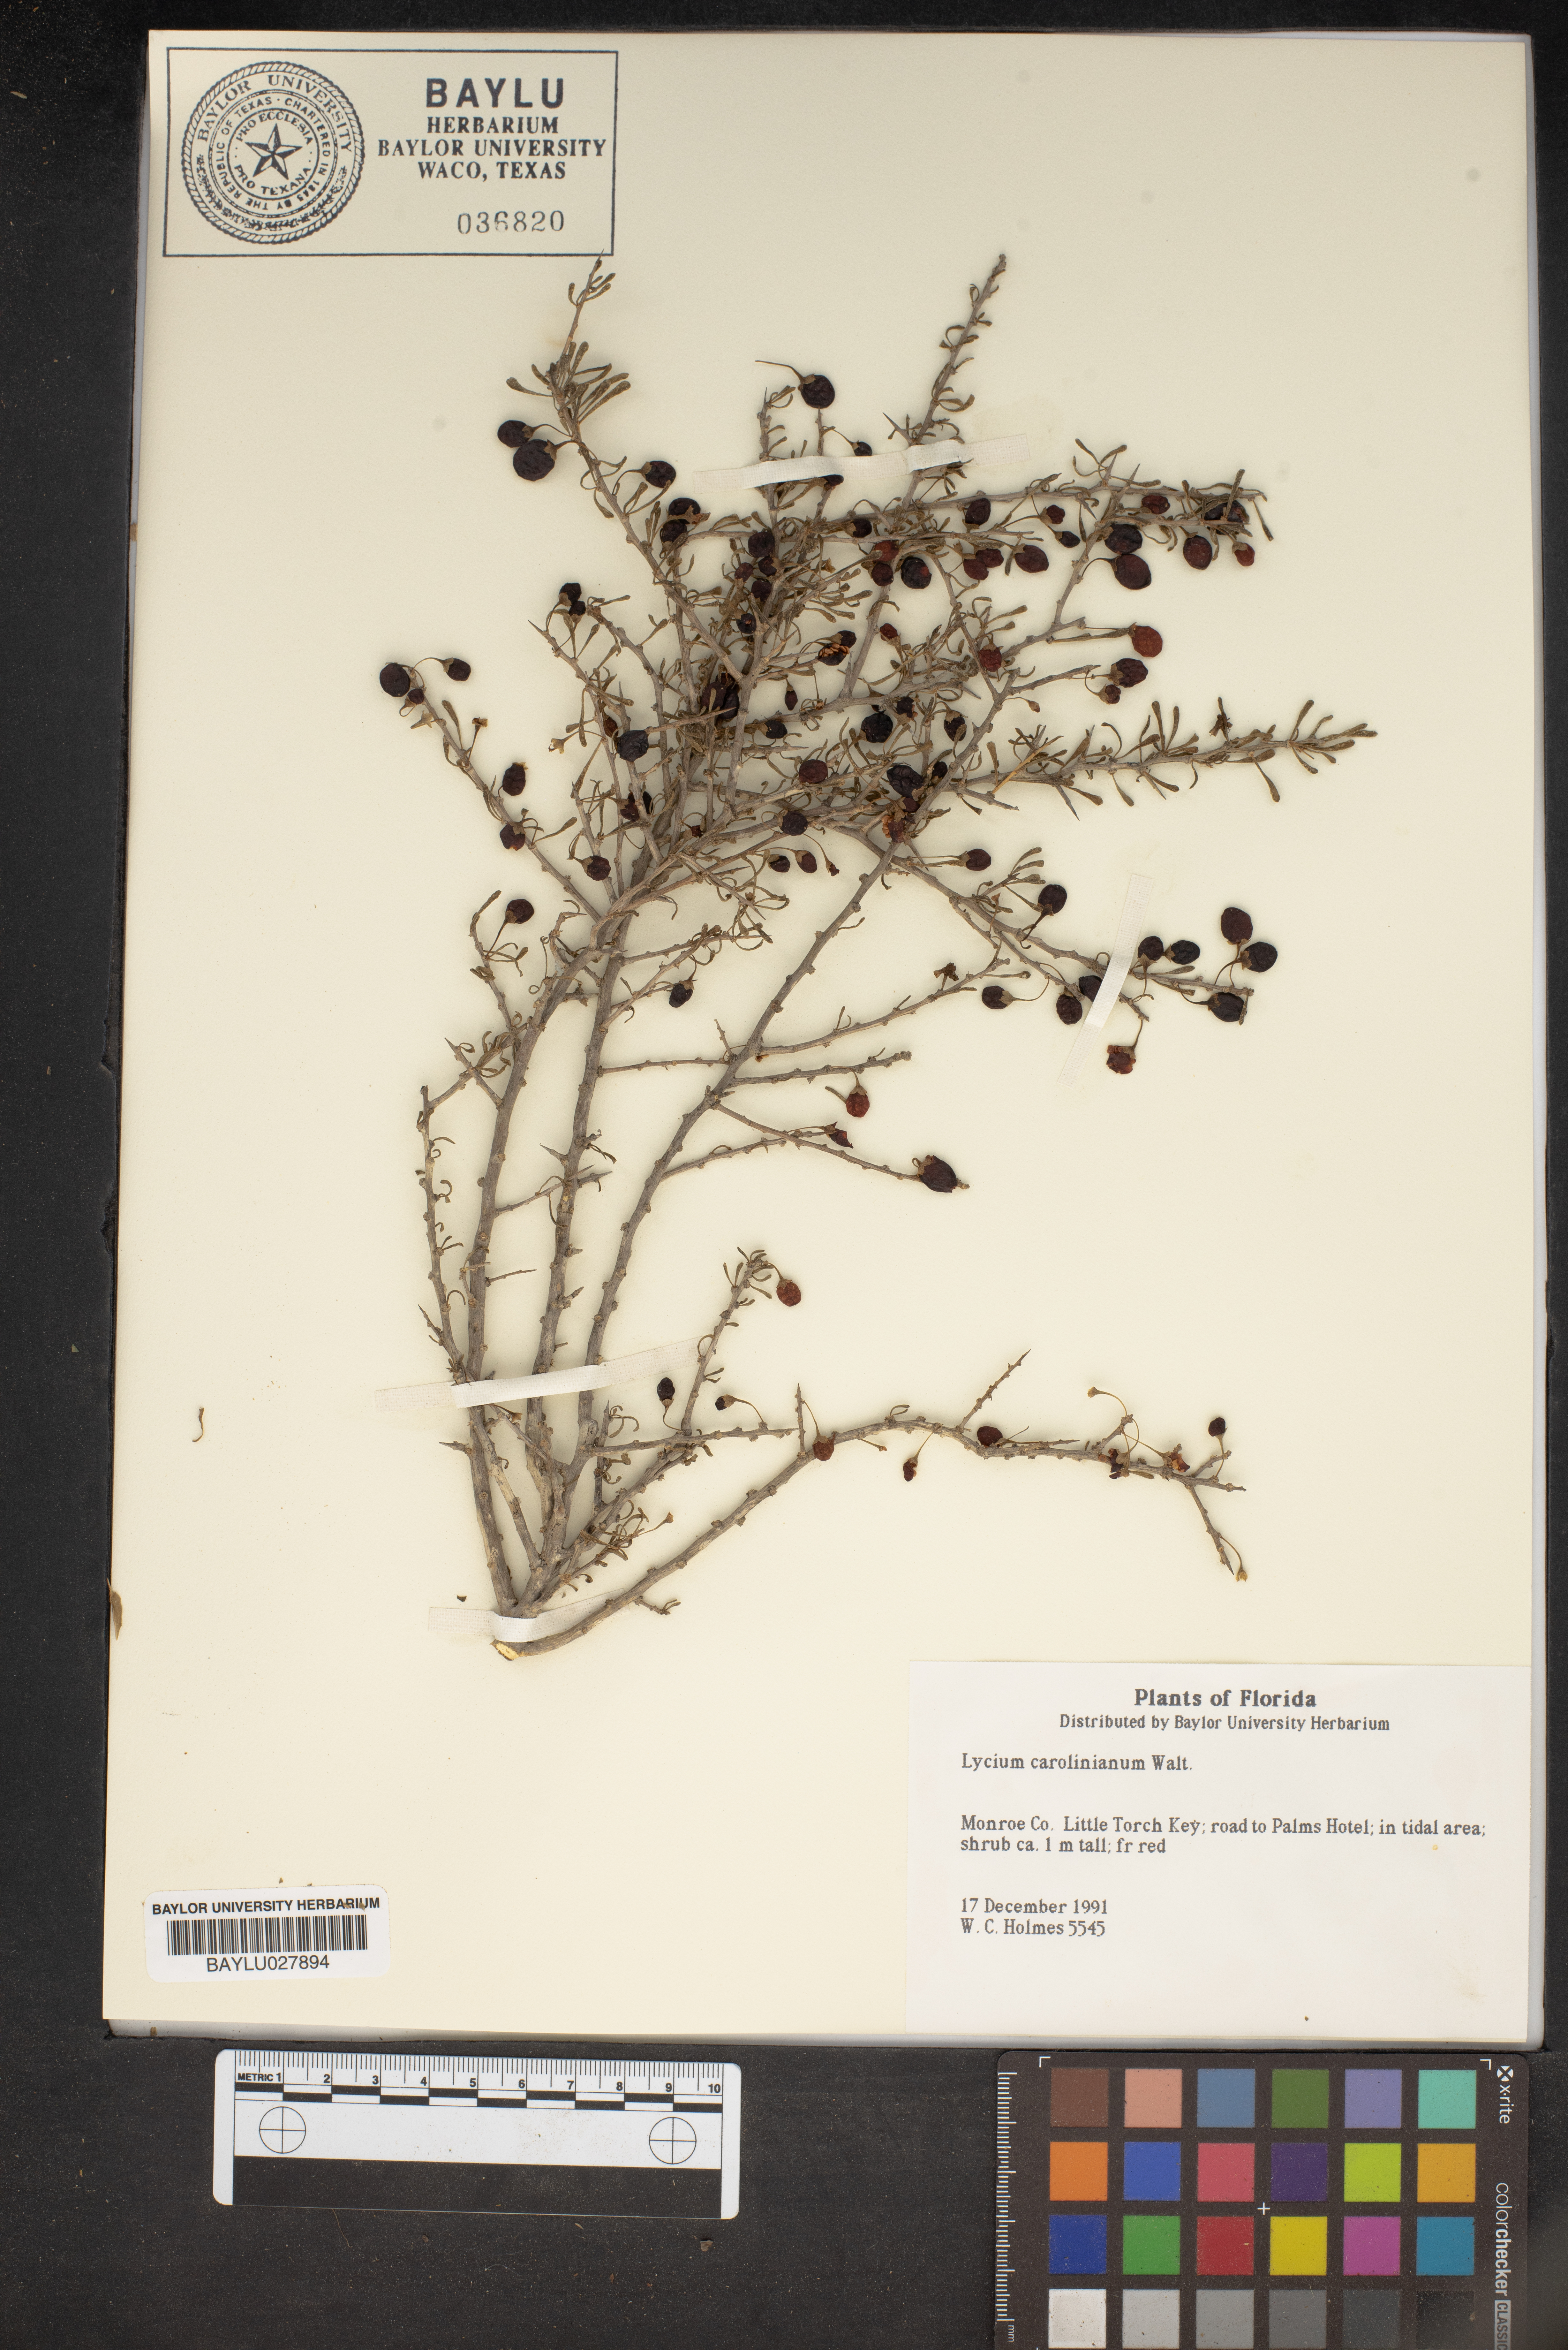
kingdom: Plantae
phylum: Tracheophyta
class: Magnoliopsida
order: Solanales
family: Solanaceae
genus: Lycium
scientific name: Lycium carolinianum
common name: Christmasberry
